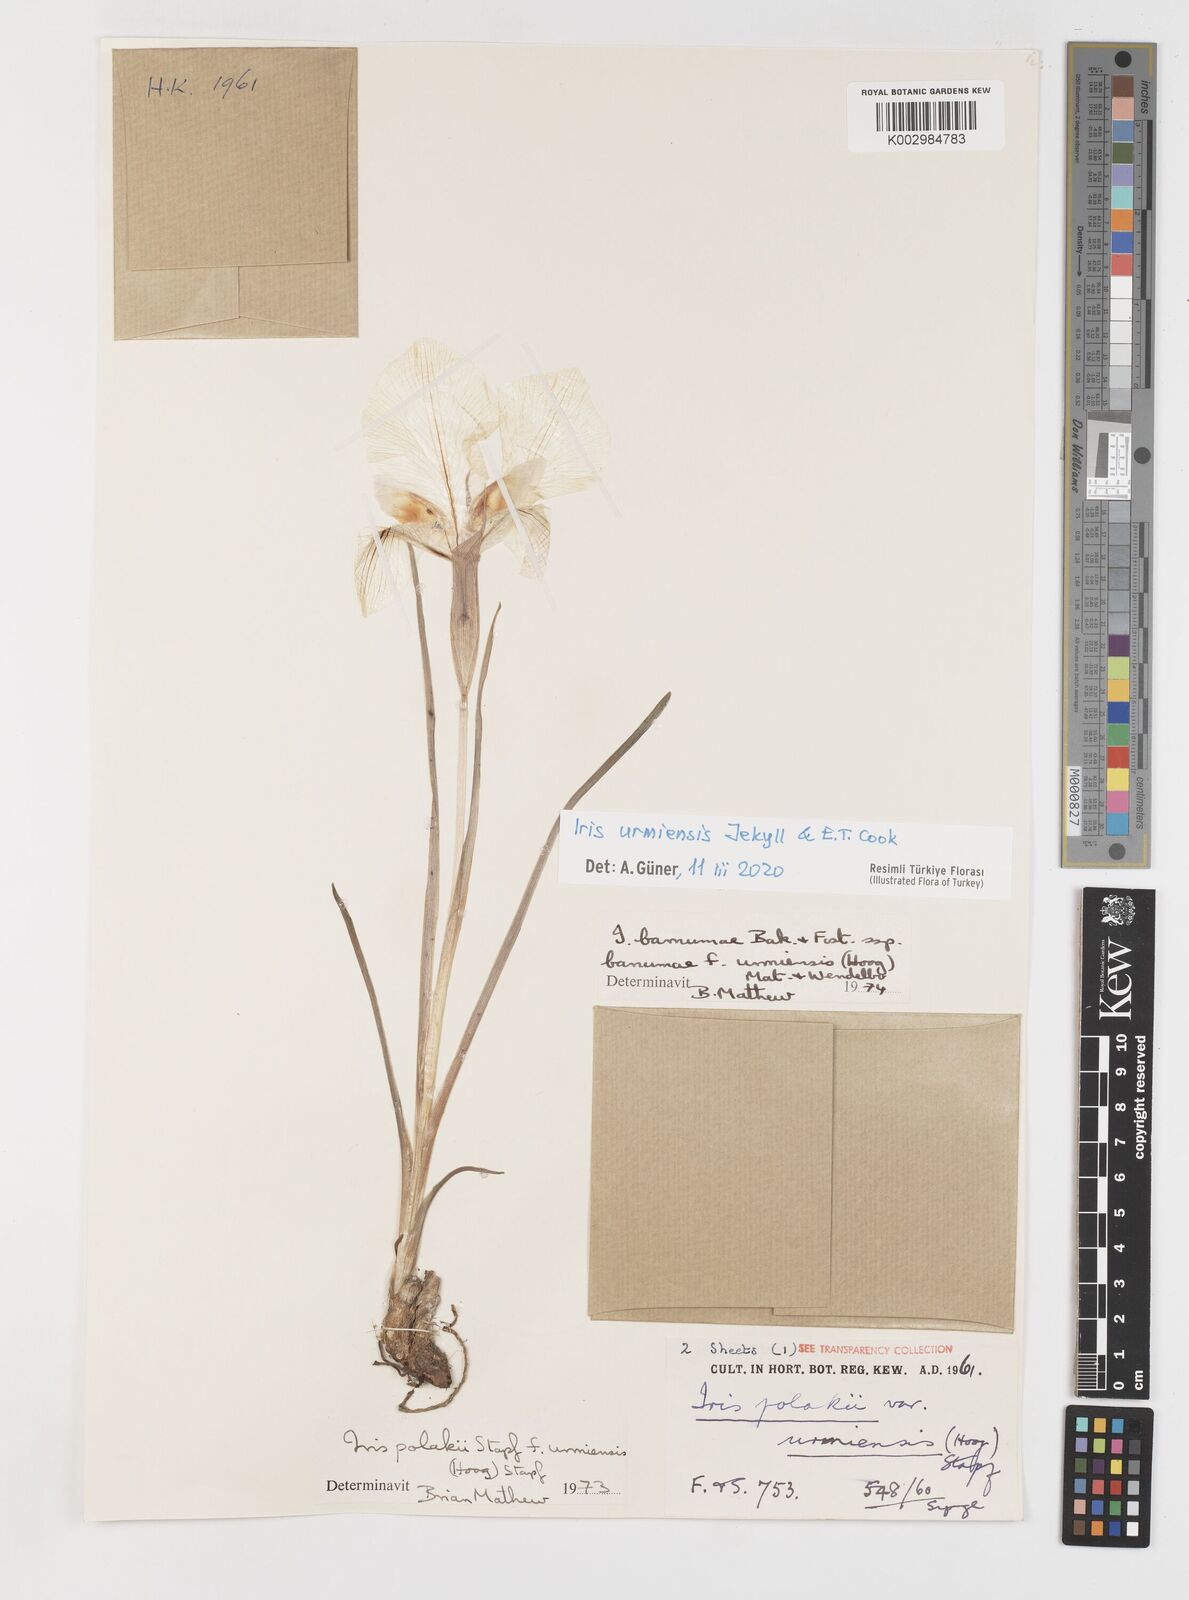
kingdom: Plantae
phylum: Tracheophyta
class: Liliopsida
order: Asparagales
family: Iridaceae
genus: Iris
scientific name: Iris urmiensis
